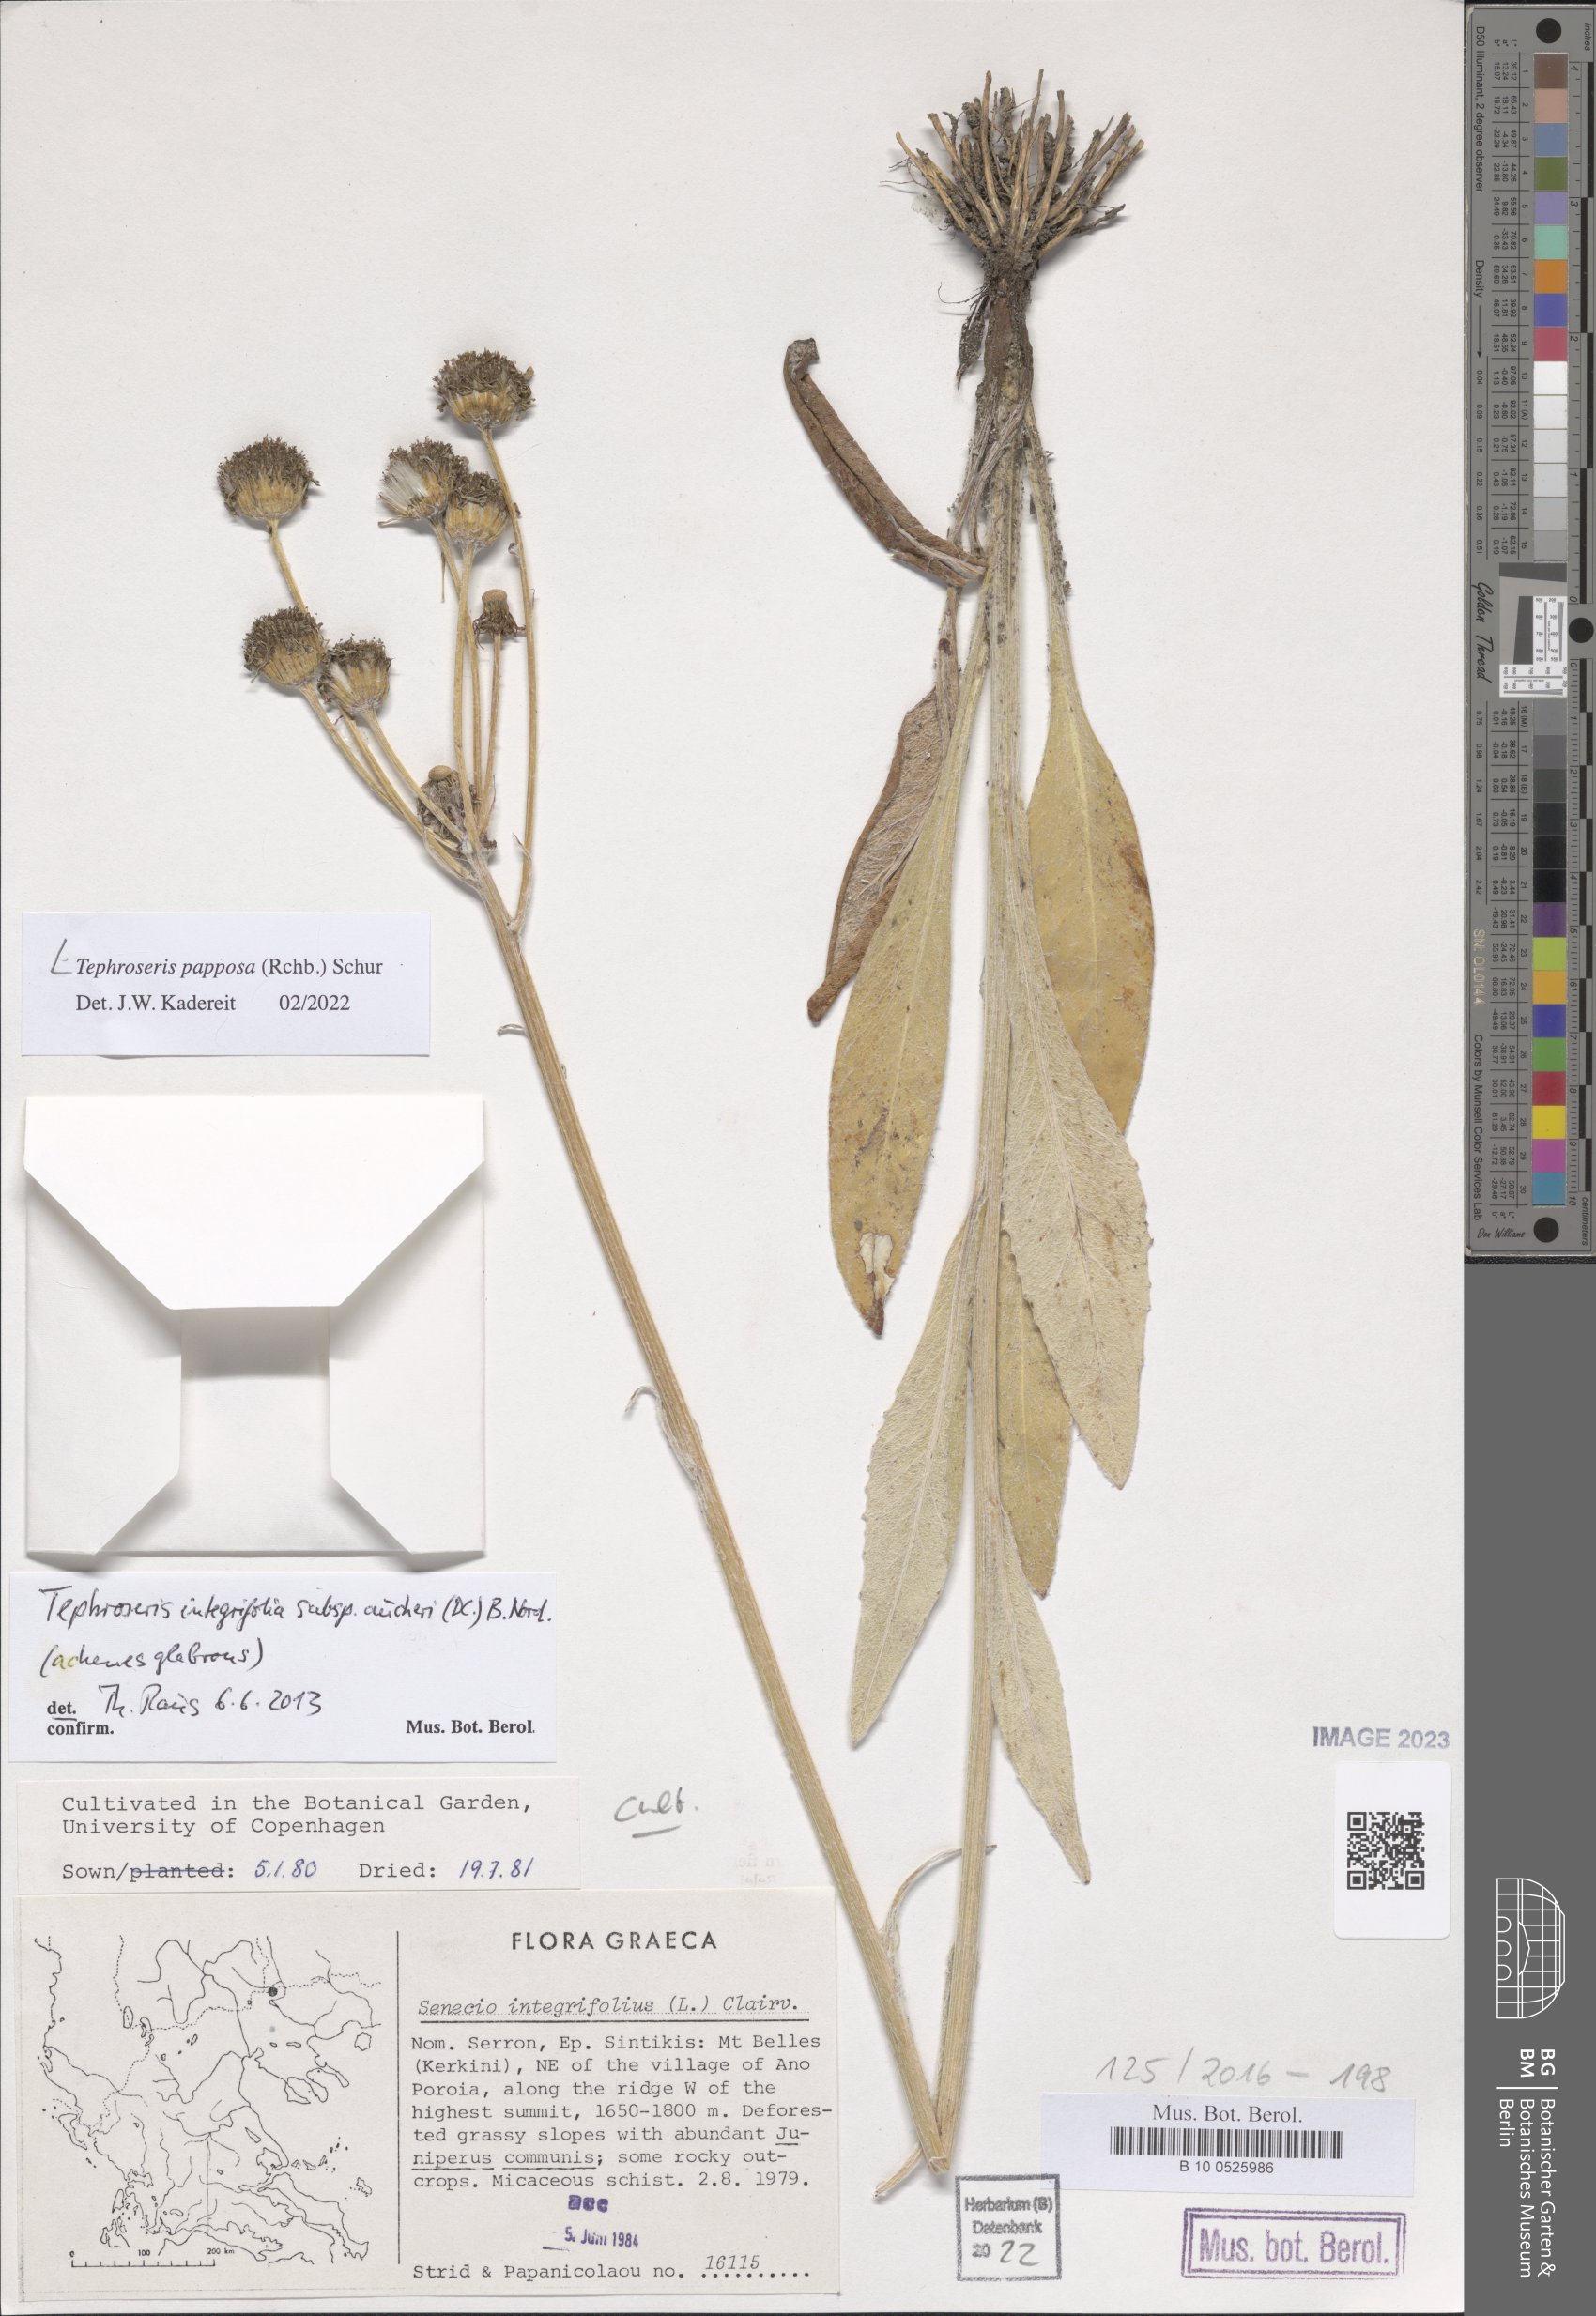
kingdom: Plantae
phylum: Tracheophyta
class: Magnoliopsida
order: Asterales
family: Asteraceae
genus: Tephroseris
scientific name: Tephroseris papposa
